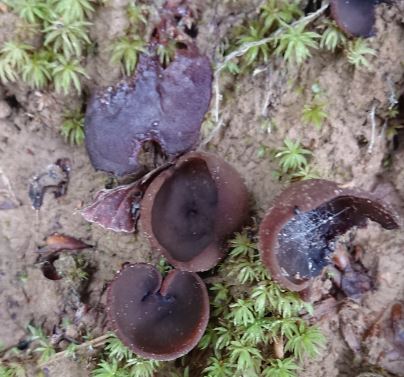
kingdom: Fungi
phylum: Ascomycota
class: Pezizomycetes
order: Pezizales
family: Pezizaceae
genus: Peziza
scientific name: Peziza
